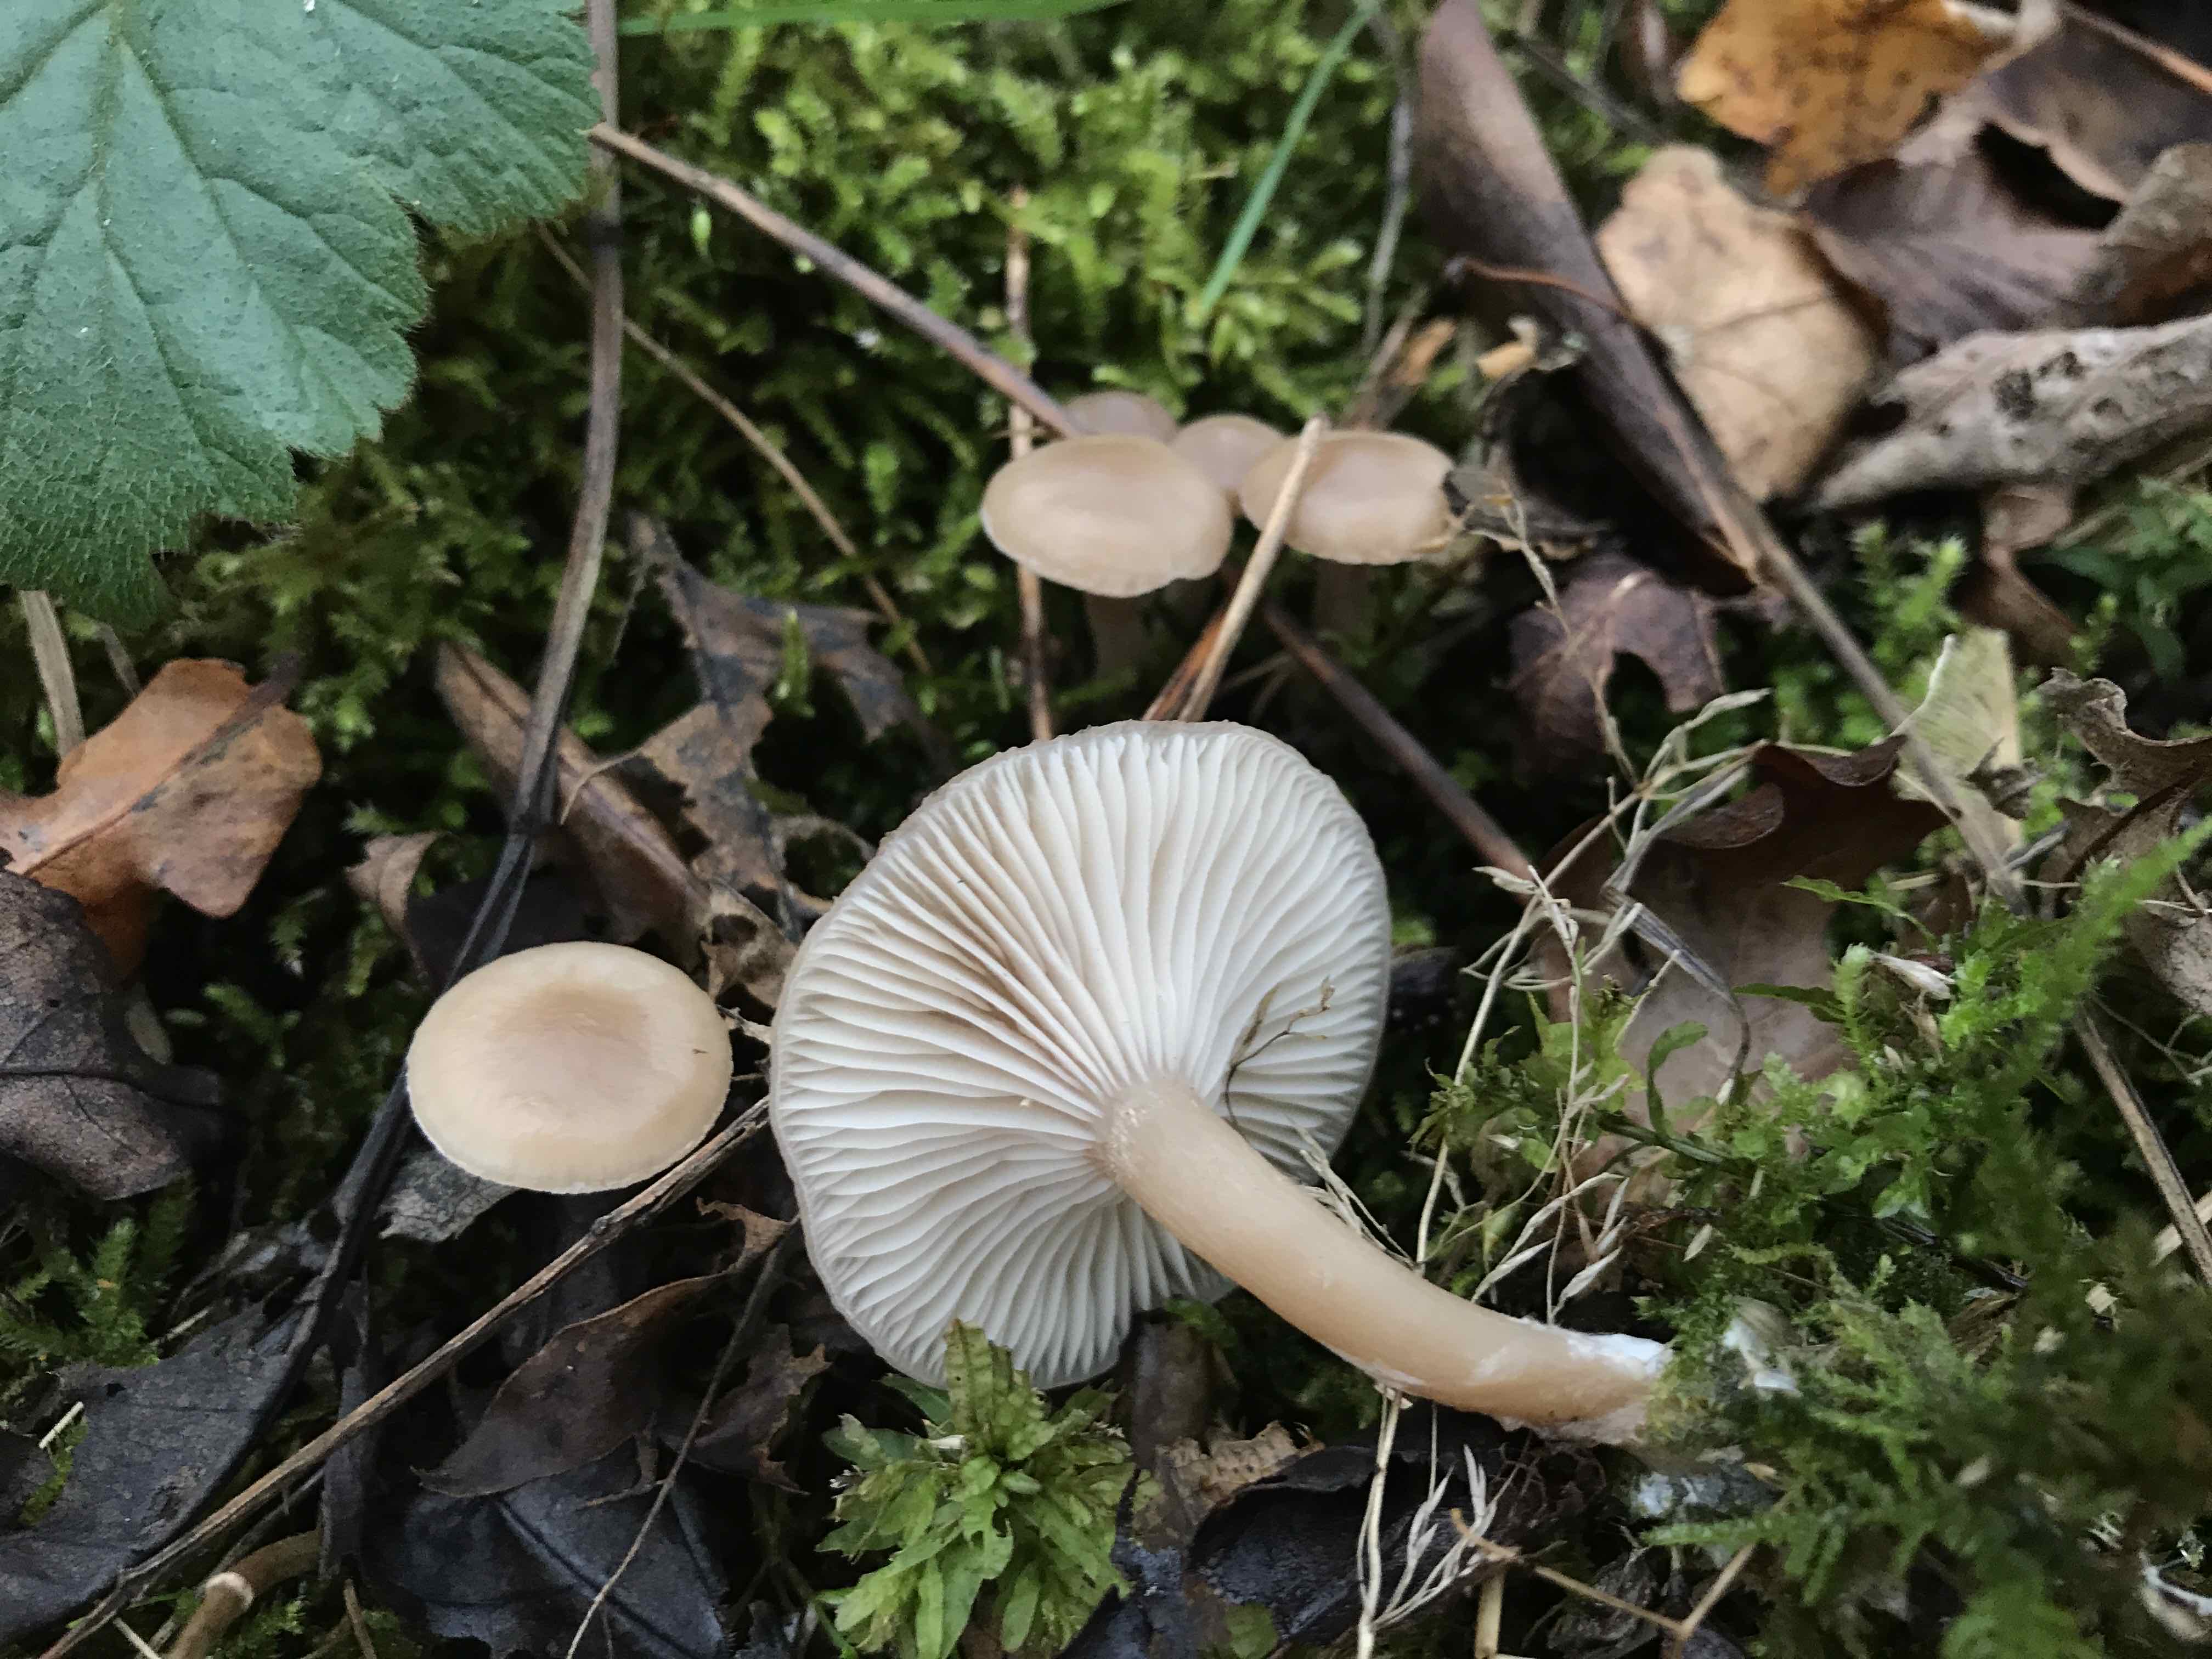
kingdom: Fungi
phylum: Basidiomycota
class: Agaricomycetes
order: Agaricales
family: Tricholomataceae
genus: Clitocybe
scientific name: Clitocybe fragrans
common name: vellugtende tragthat
